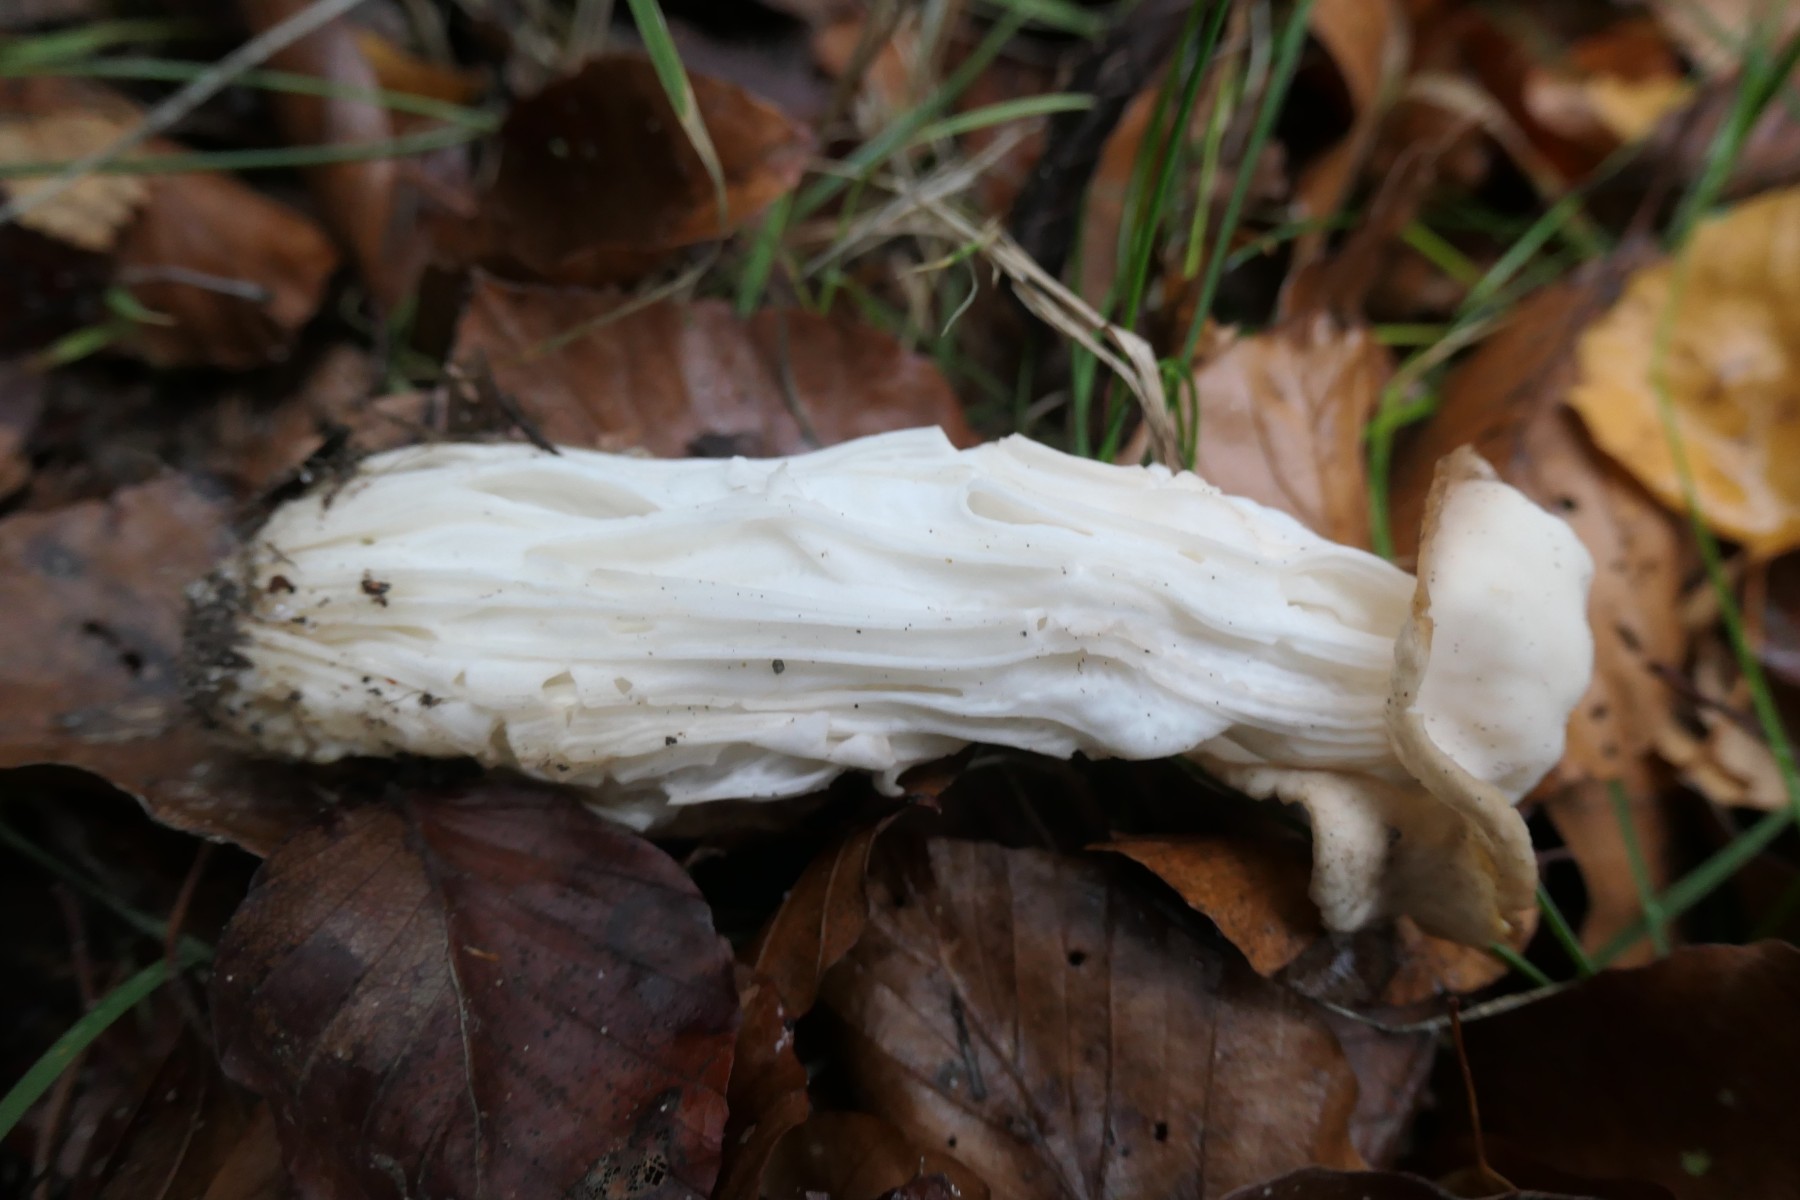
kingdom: Fungi
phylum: Ascomycota
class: Pezizomycetes
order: Pezizales
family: Helvellaceae
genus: Helvella
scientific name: Helvella crispa
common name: kruset foldhat
